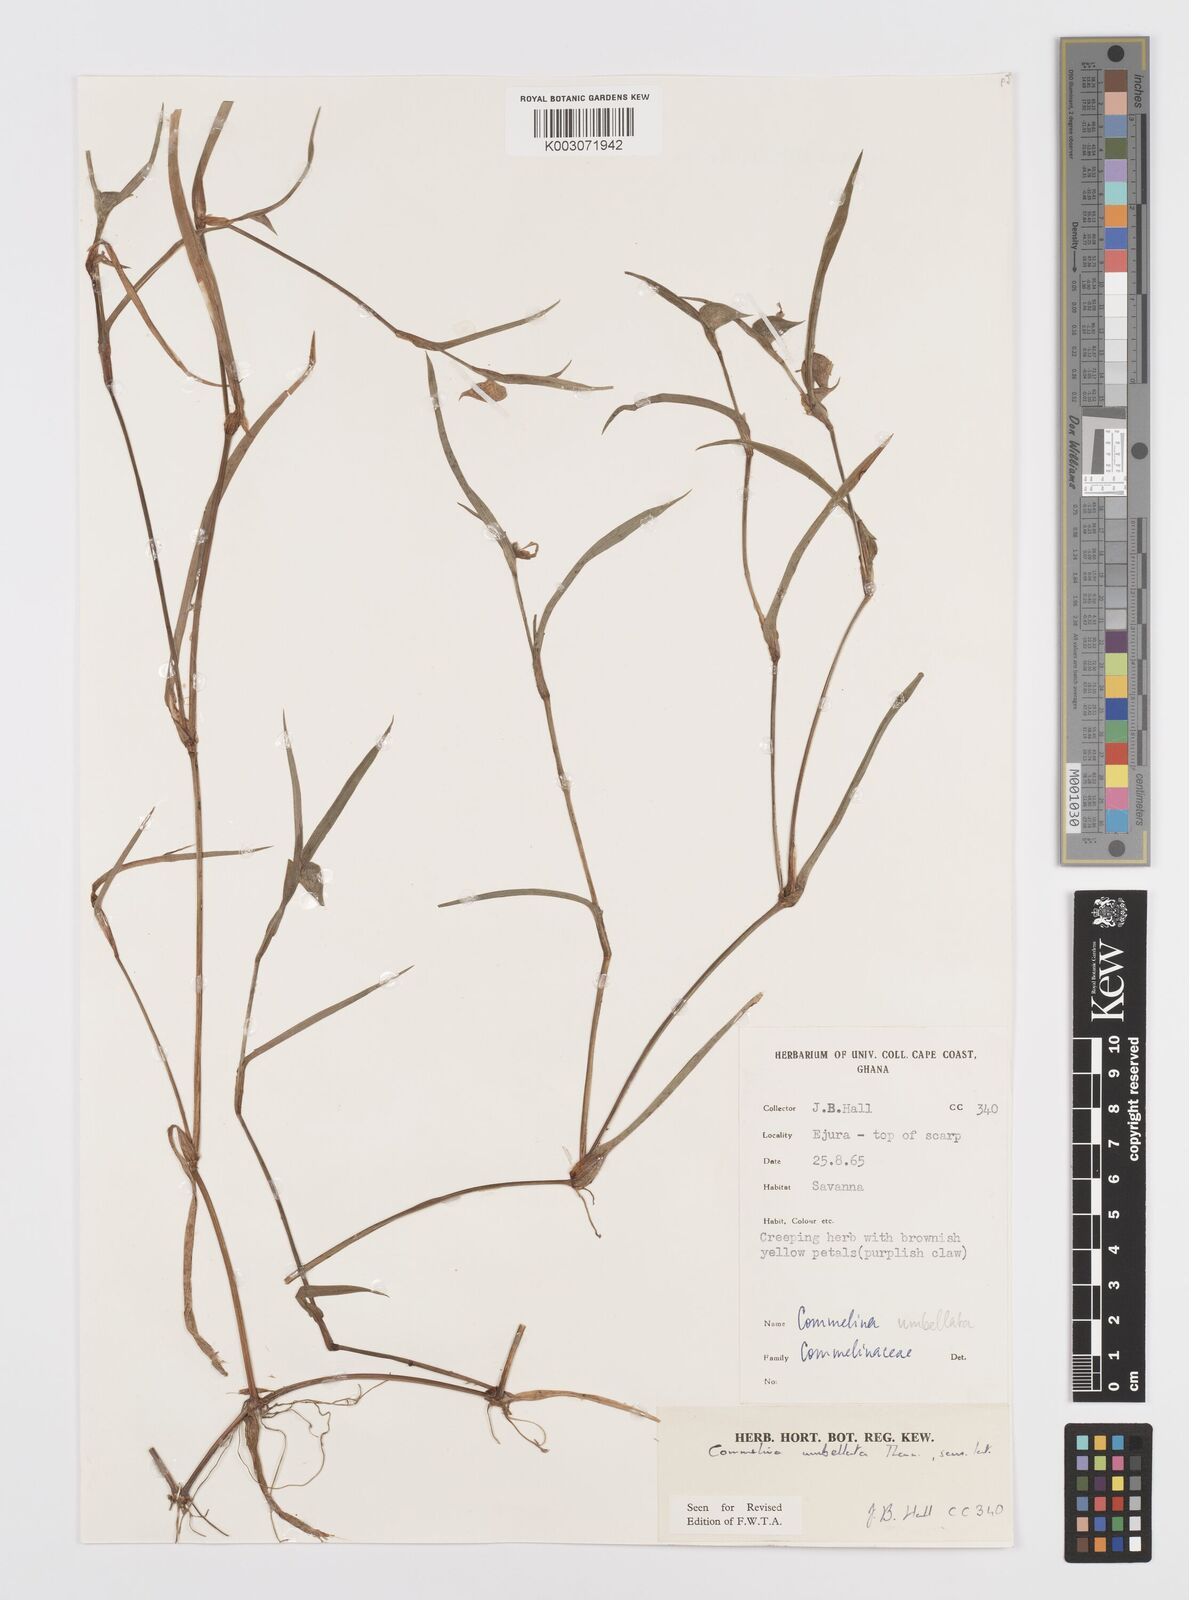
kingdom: Plantae
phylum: Tracheophyta
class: Liliopsida
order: Commelinales
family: Commelinaceae
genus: Commelina
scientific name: Commelina
